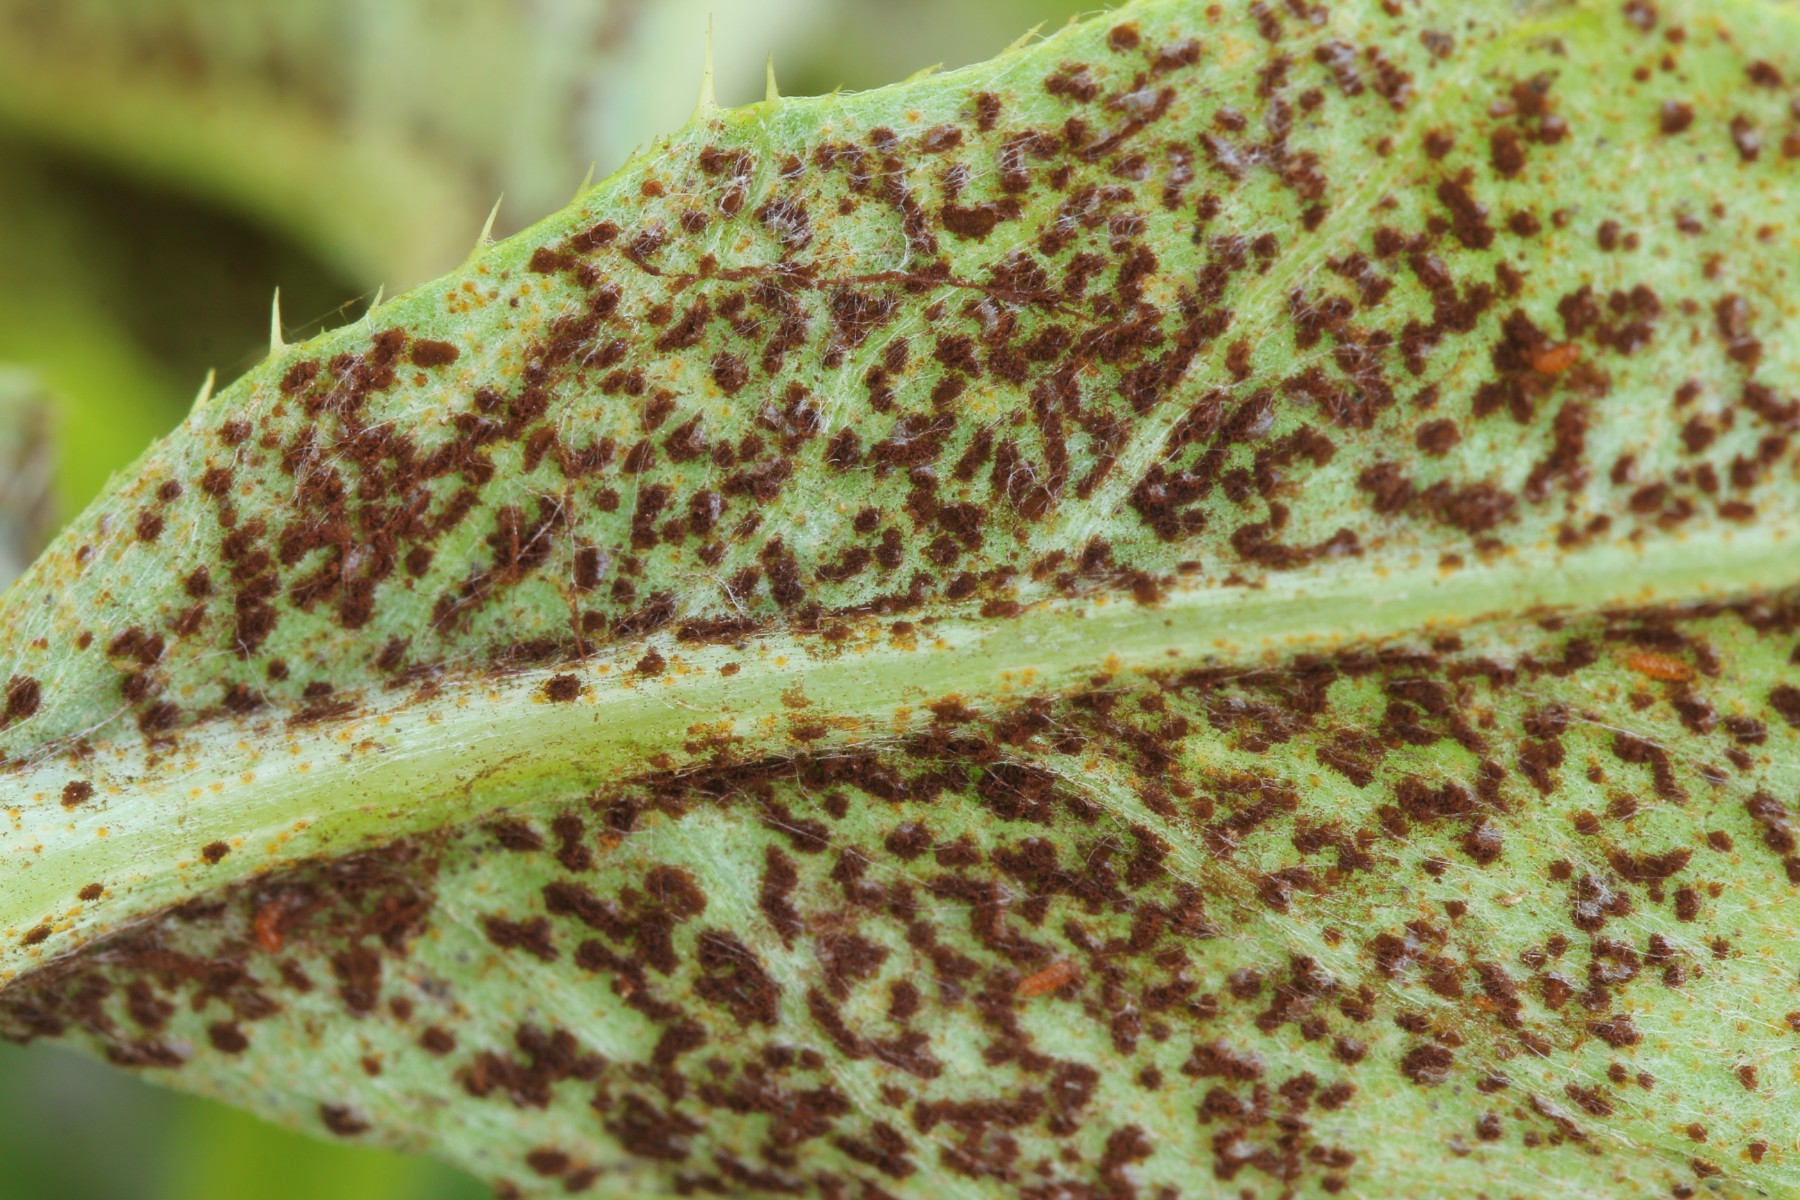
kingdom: Fungi
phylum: Basidiomycota
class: Pucciniomycetes
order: Pucciniales
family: Pucciniaceae
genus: Puccinia
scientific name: Puccinia suaveolens
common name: tidsel-tvecellerust
